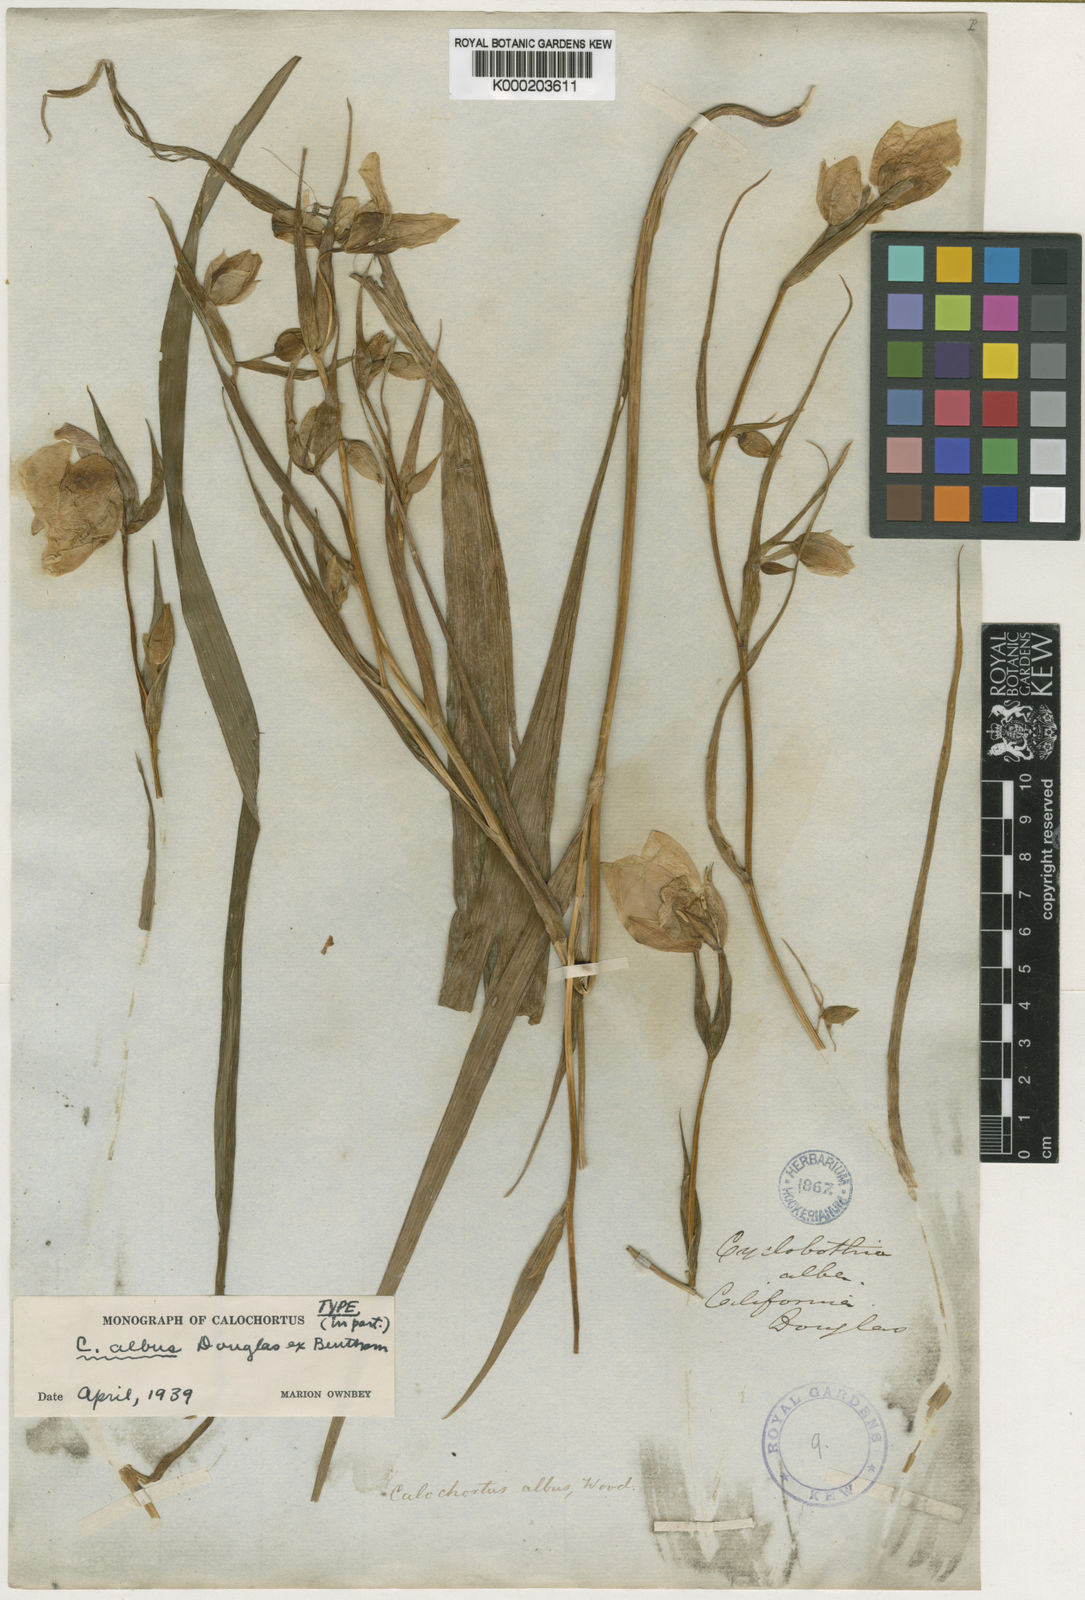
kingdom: Plantae
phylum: Tracheophyta
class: Liliopsida
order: Liliales
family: Liliaceae
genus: Calochortus
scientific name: Calochortus albus
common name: Fairy-lantern
